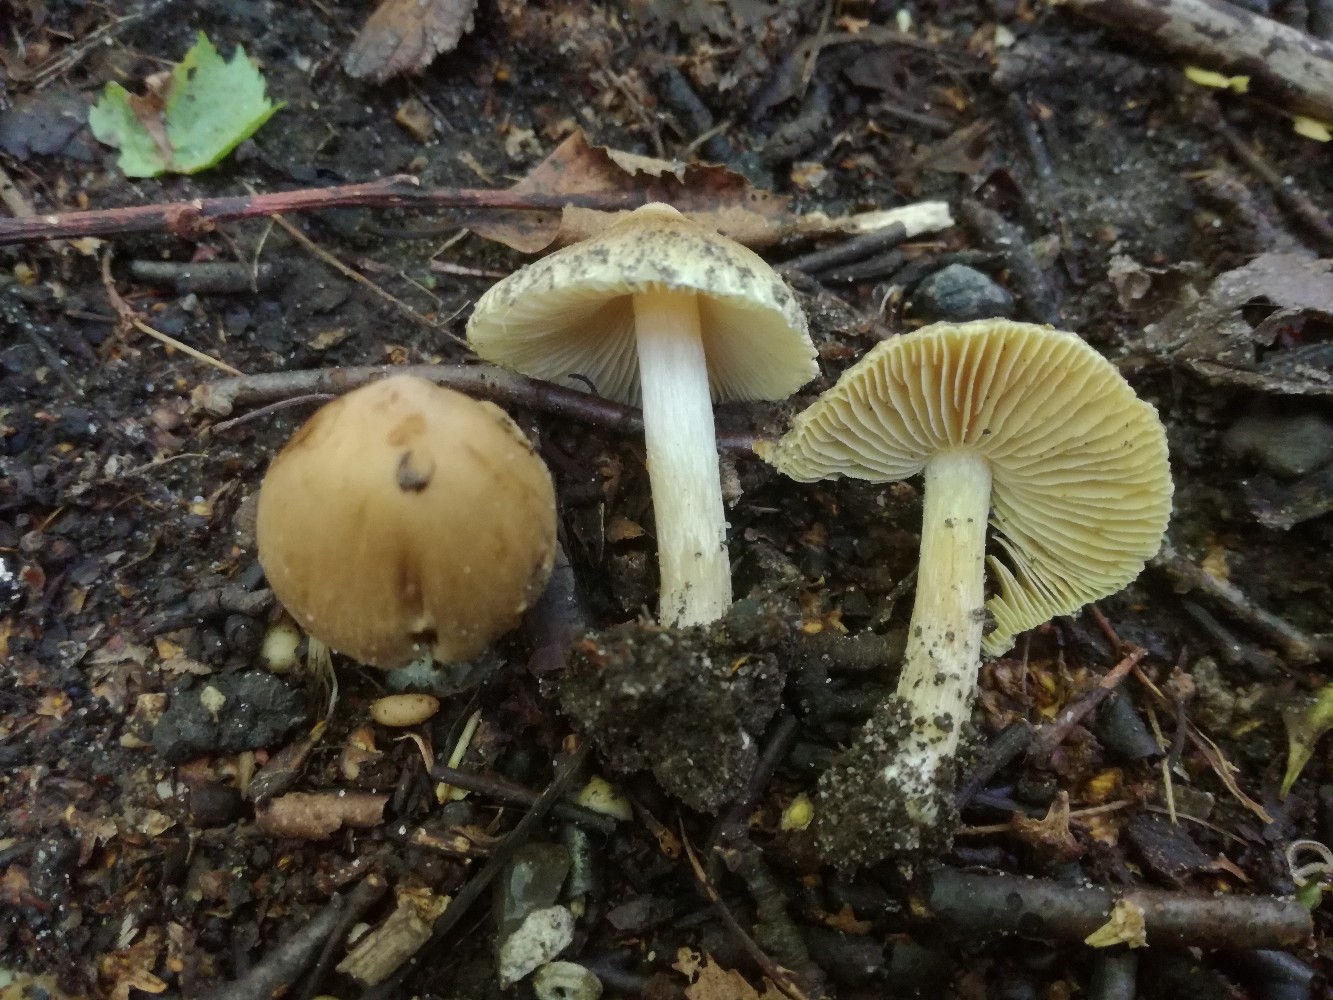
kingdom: Fungi
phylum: Basidiomycota
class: Agaricomycetes
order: Agaricales
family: Inocybaceae
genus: Pseudosperma
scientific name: Pseudosperma
